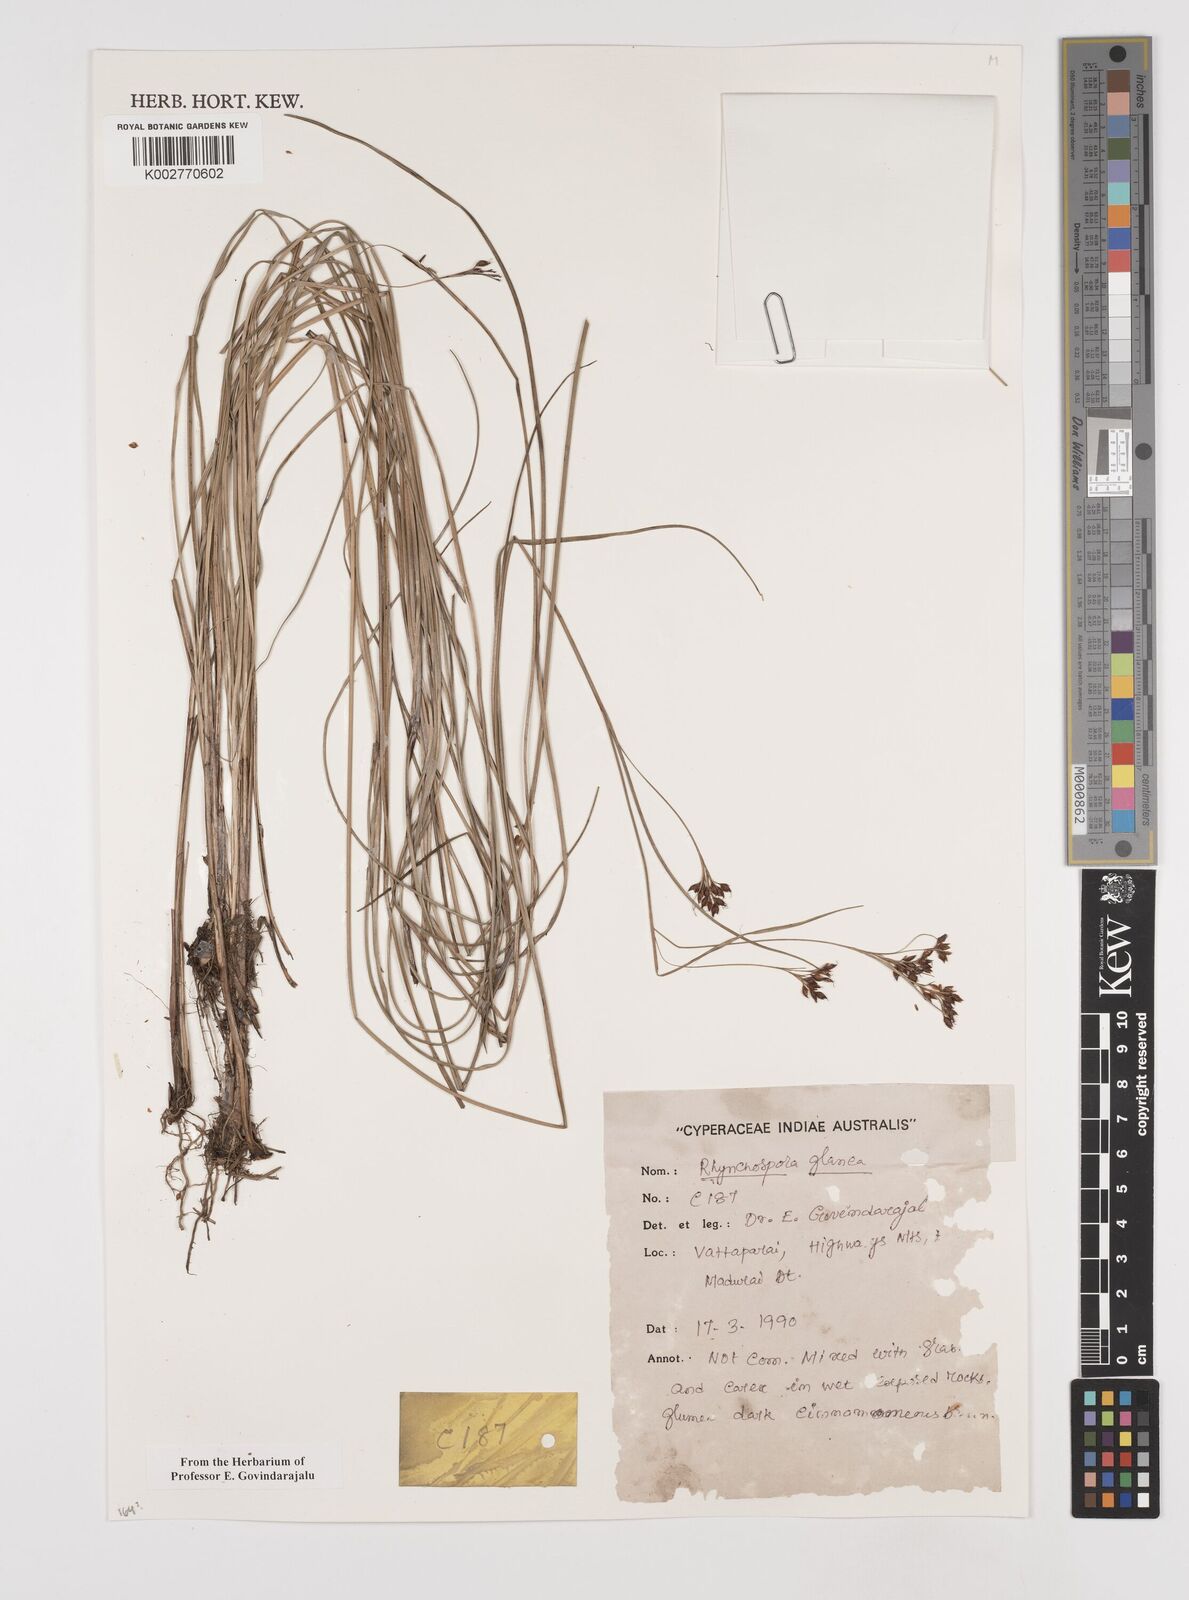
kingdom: Plantae
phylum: Tracheophyta
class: Liliopsida
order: Poales
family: Cyperaceae
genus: Rhynchospora
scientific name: Rhynchospora rugosa
